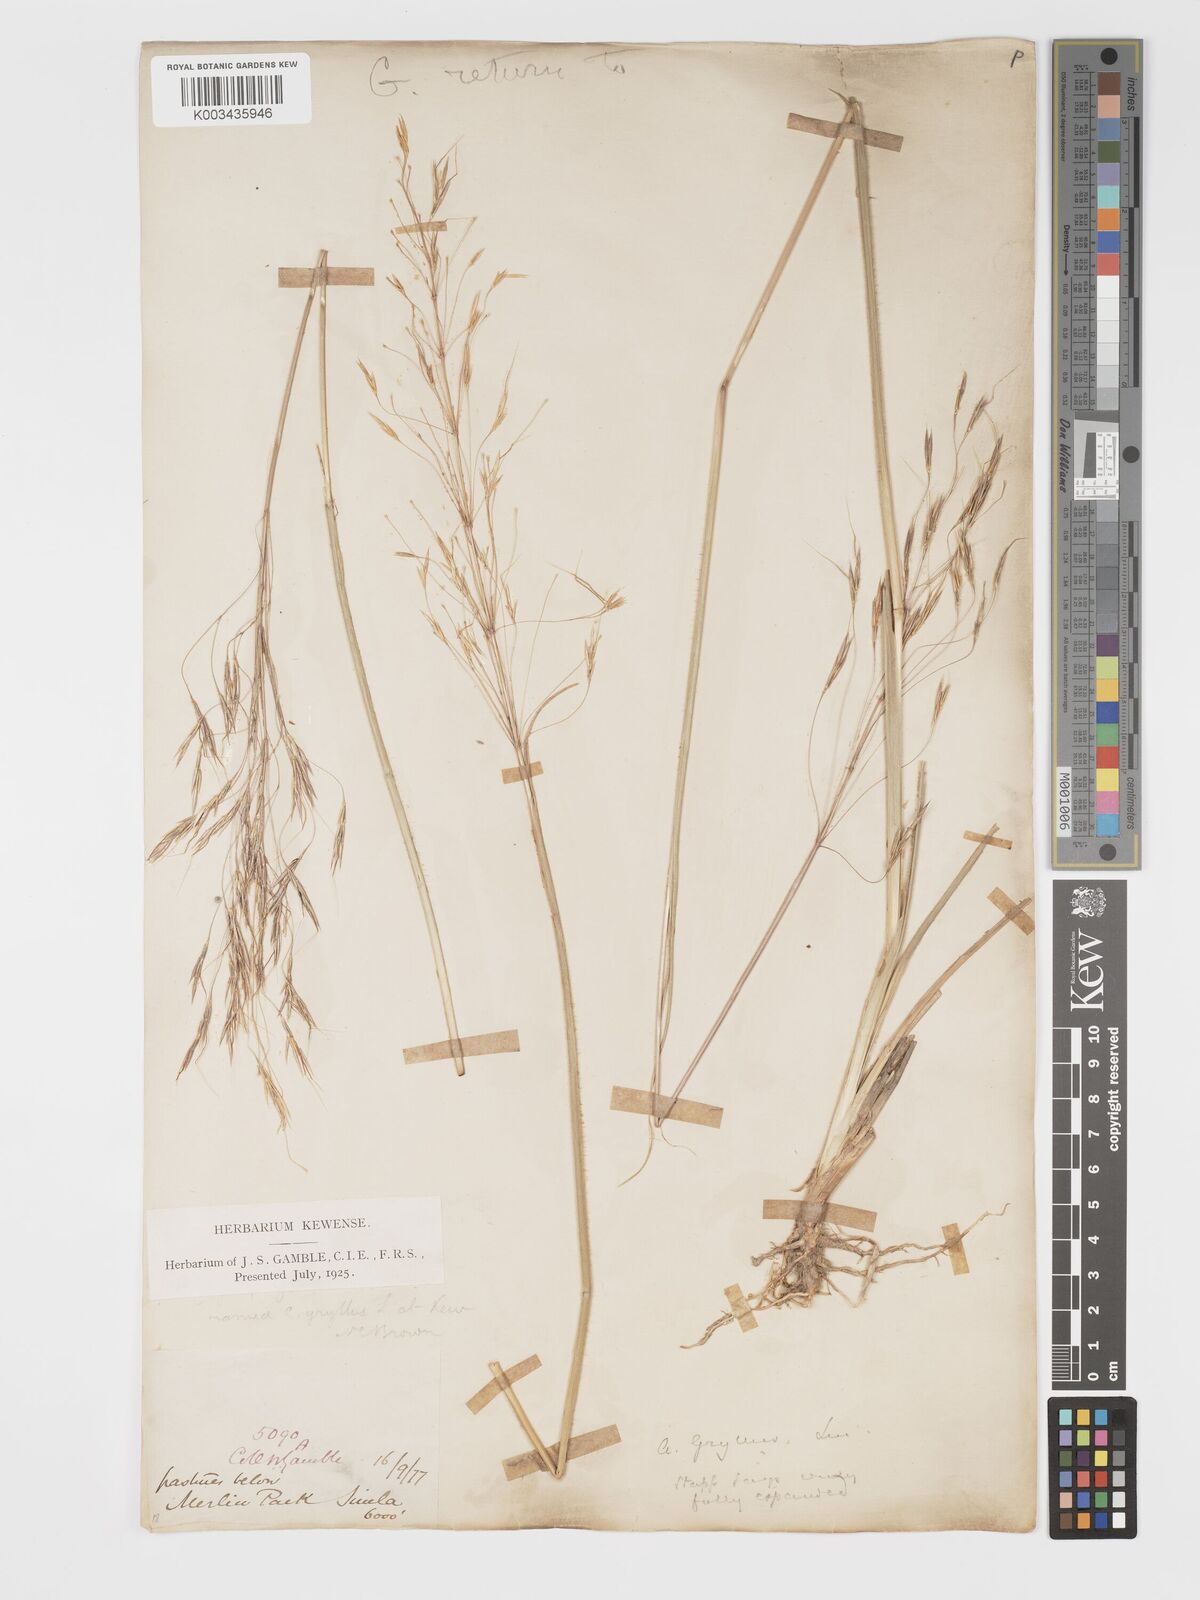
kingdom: Plantae
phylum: Tracheophyta
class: Liliopsida
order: Poales
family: Poaceae
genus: Chrysopogon
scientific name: Chrysopogon gryllus
